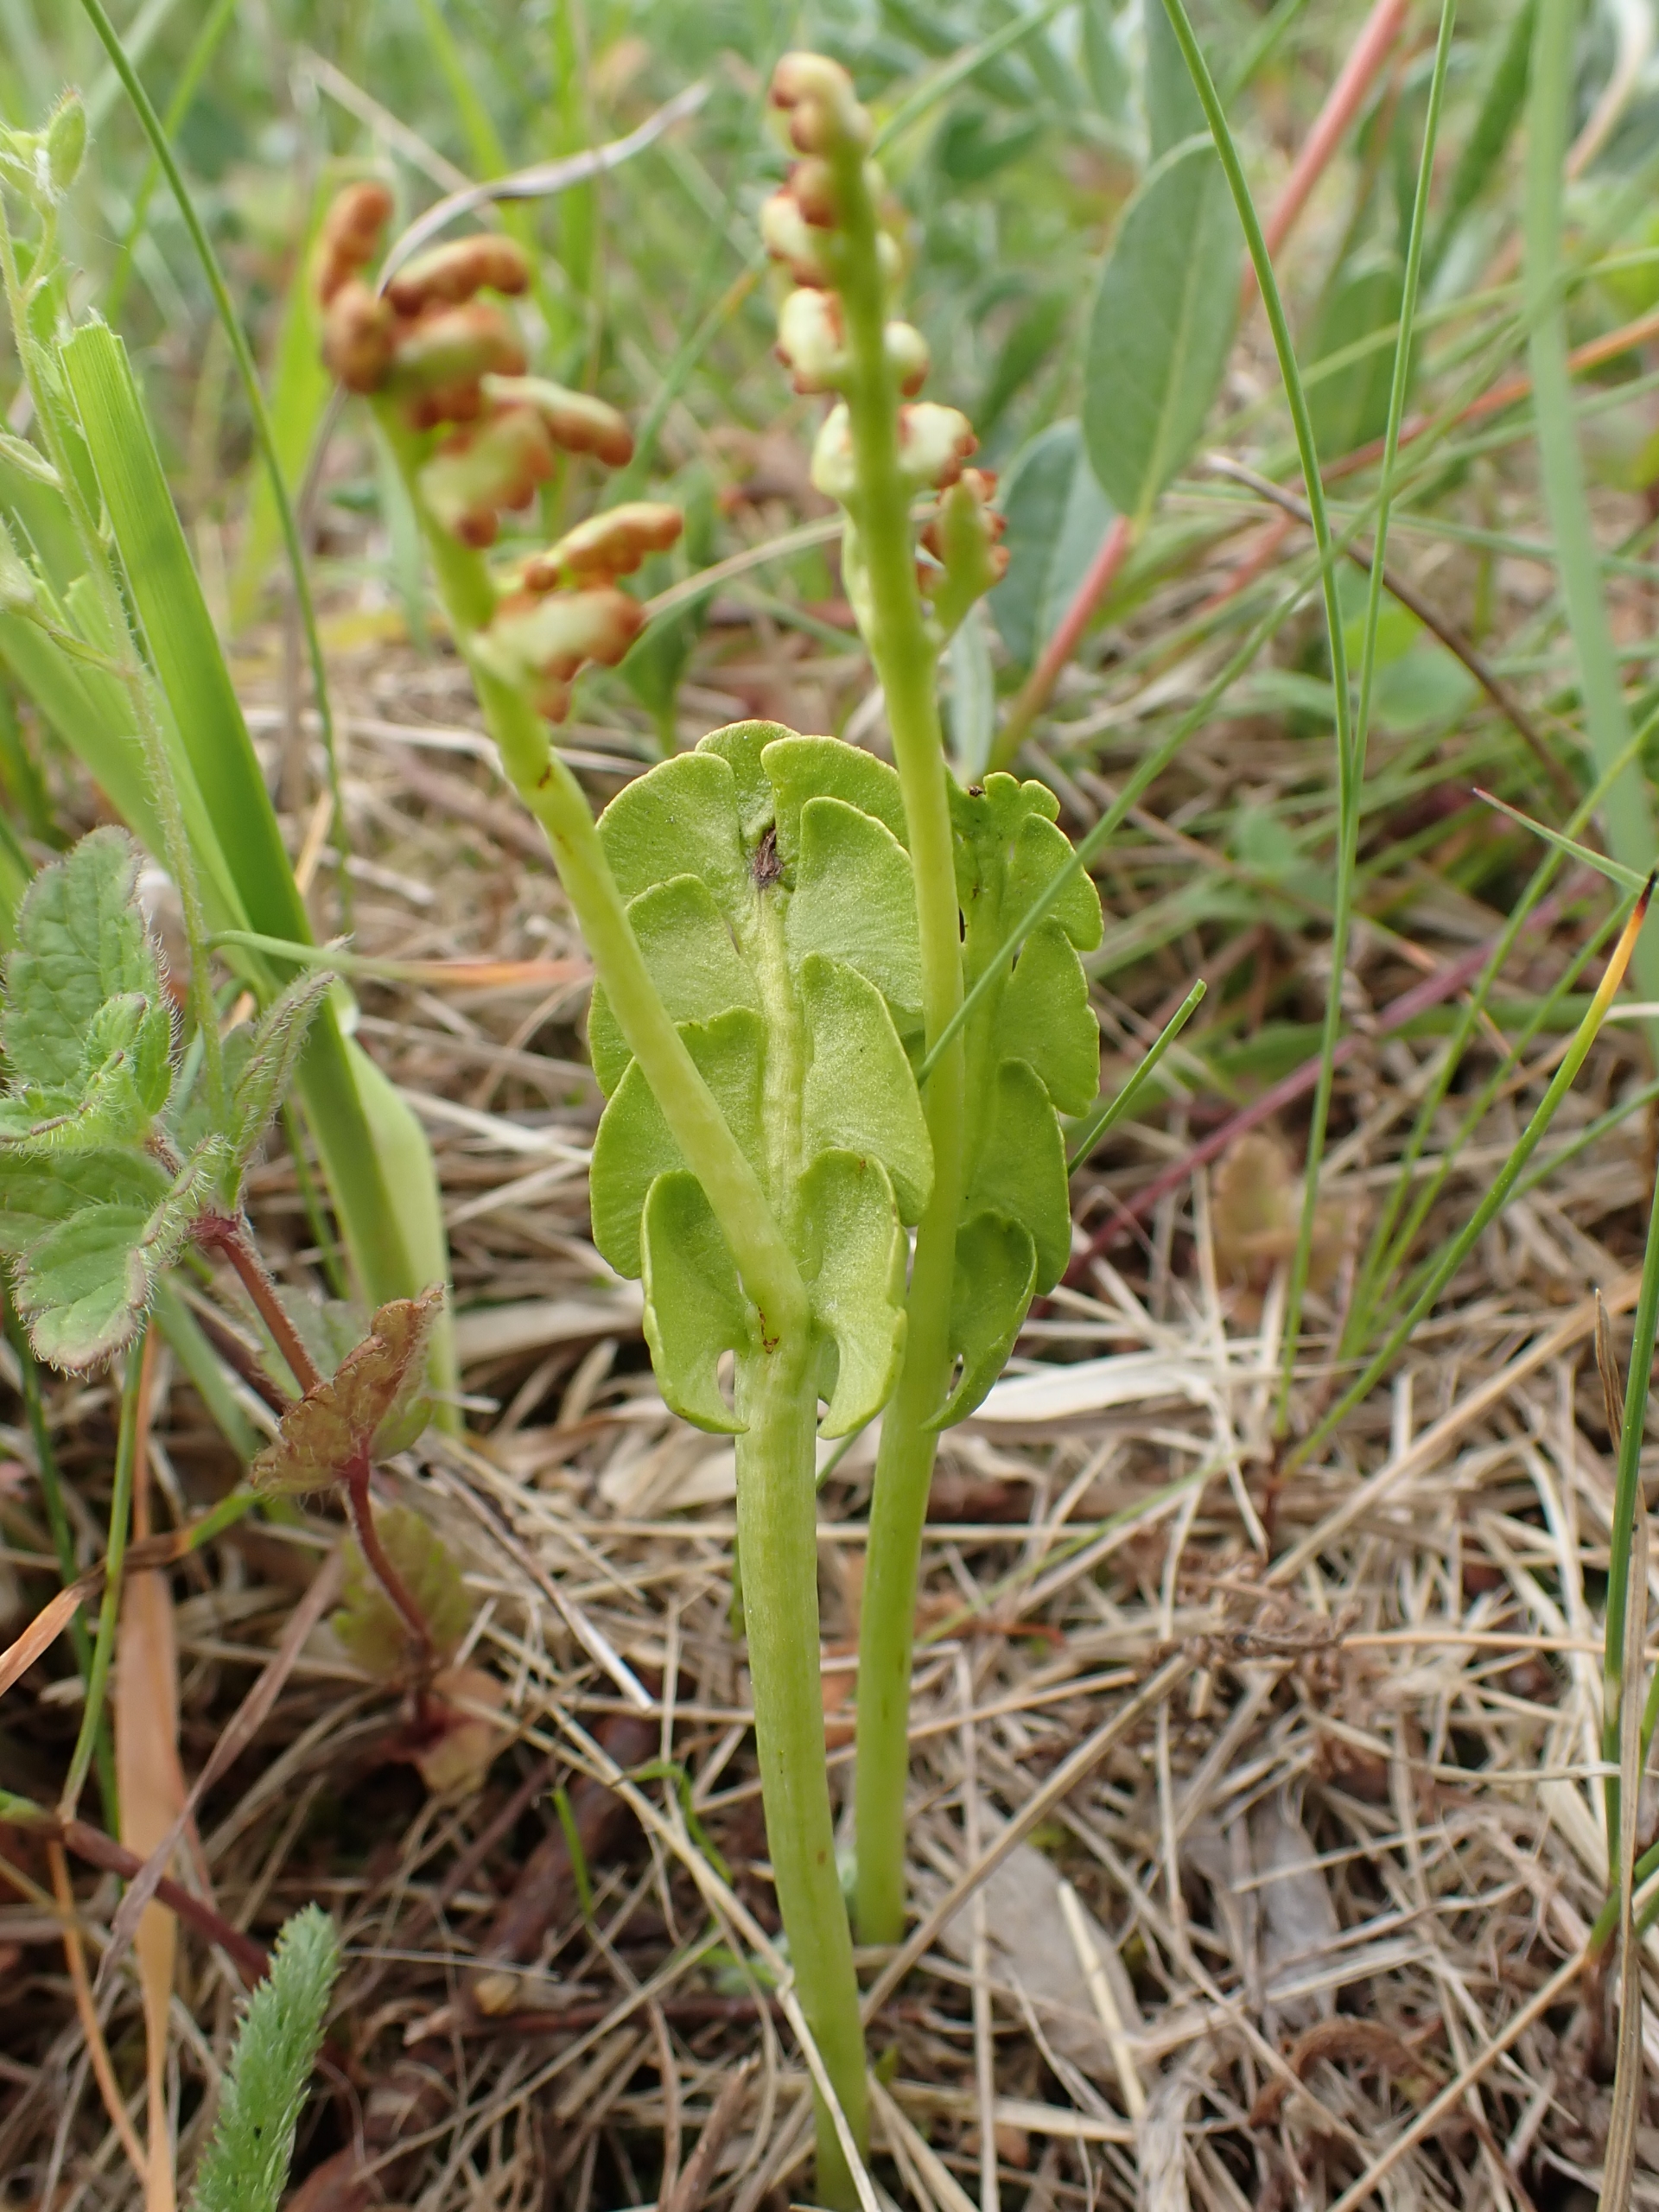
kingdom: Plantae
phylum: Tracheophyta
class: Polypodiopsida
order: Ophioglossales
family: Ophioglossaceae
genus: Botrychium
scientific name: Botrychium lunaria
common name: Almindelig månerude
